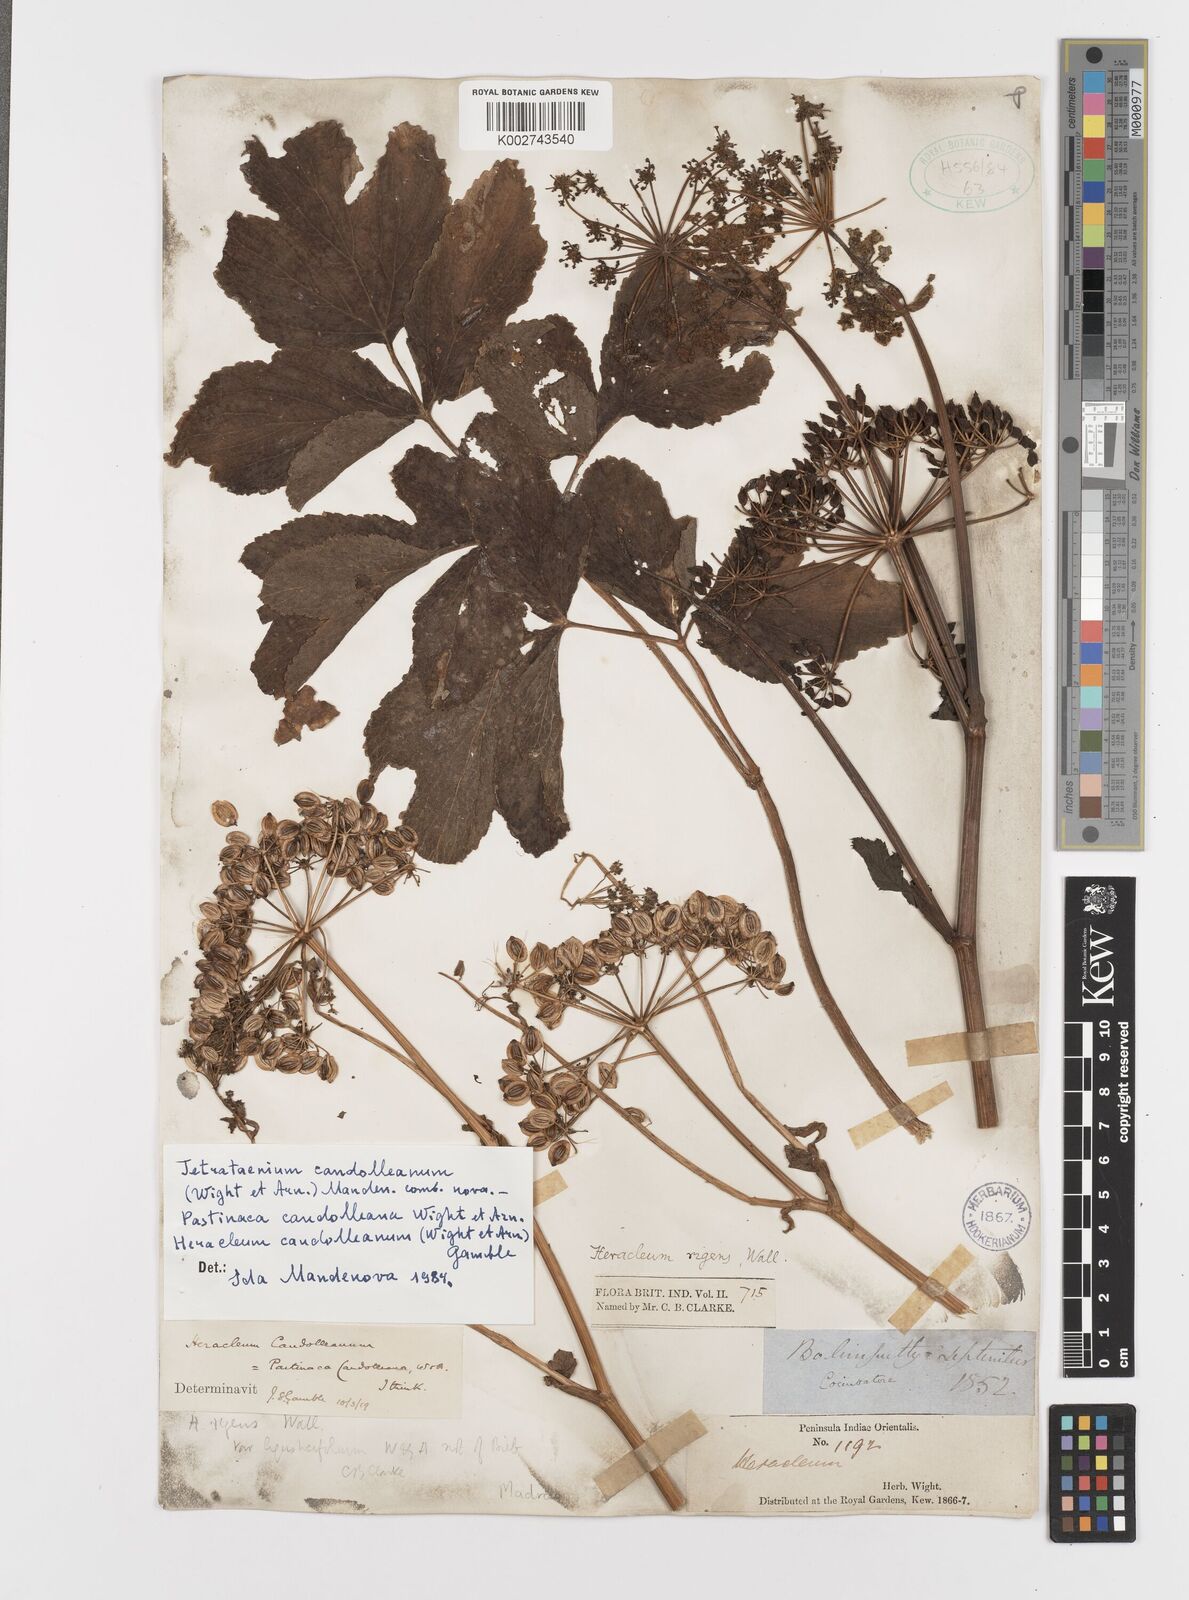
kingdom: Plantae
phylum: Tracheophyta
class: Magnoliopsida
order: Apiales
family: Apiaceae
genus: Tetrataenium
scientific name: Tetrataenium rigens
